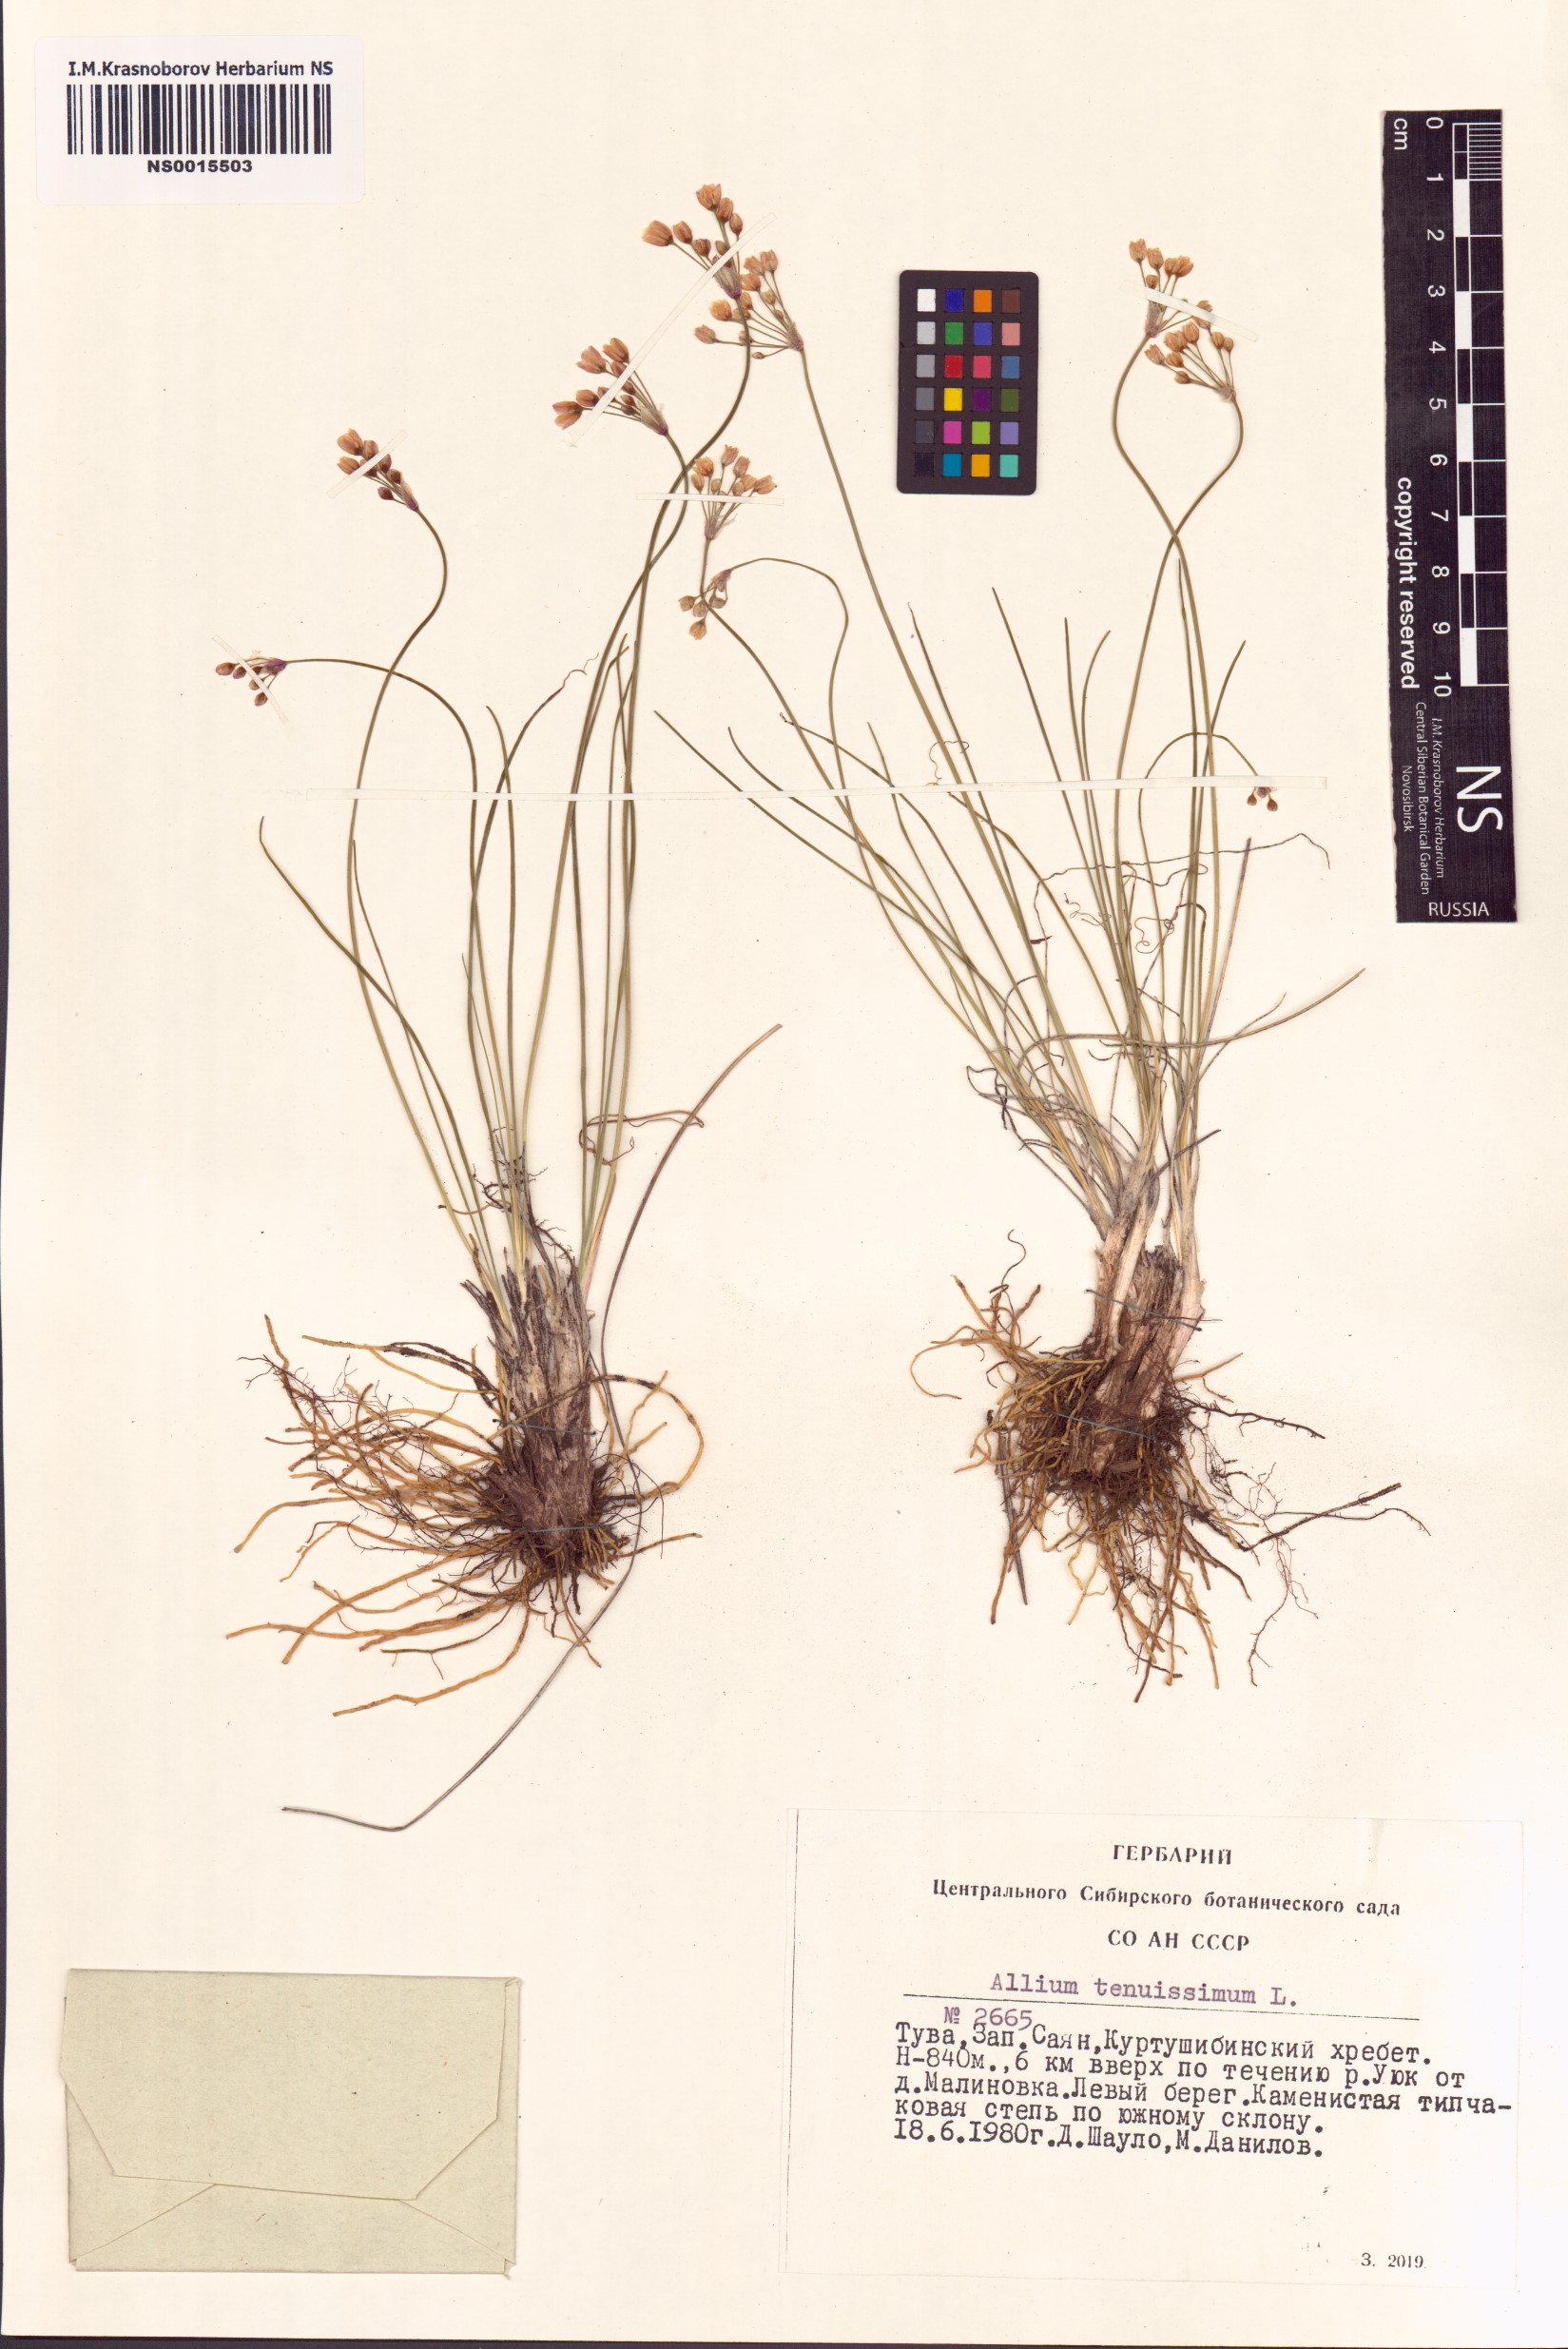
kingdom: Plantae
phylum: Tracheophyta
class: Liliopsida
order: Asparagales
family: Amaryllidaceae
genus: Allium
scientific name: Allium tenuissimum
